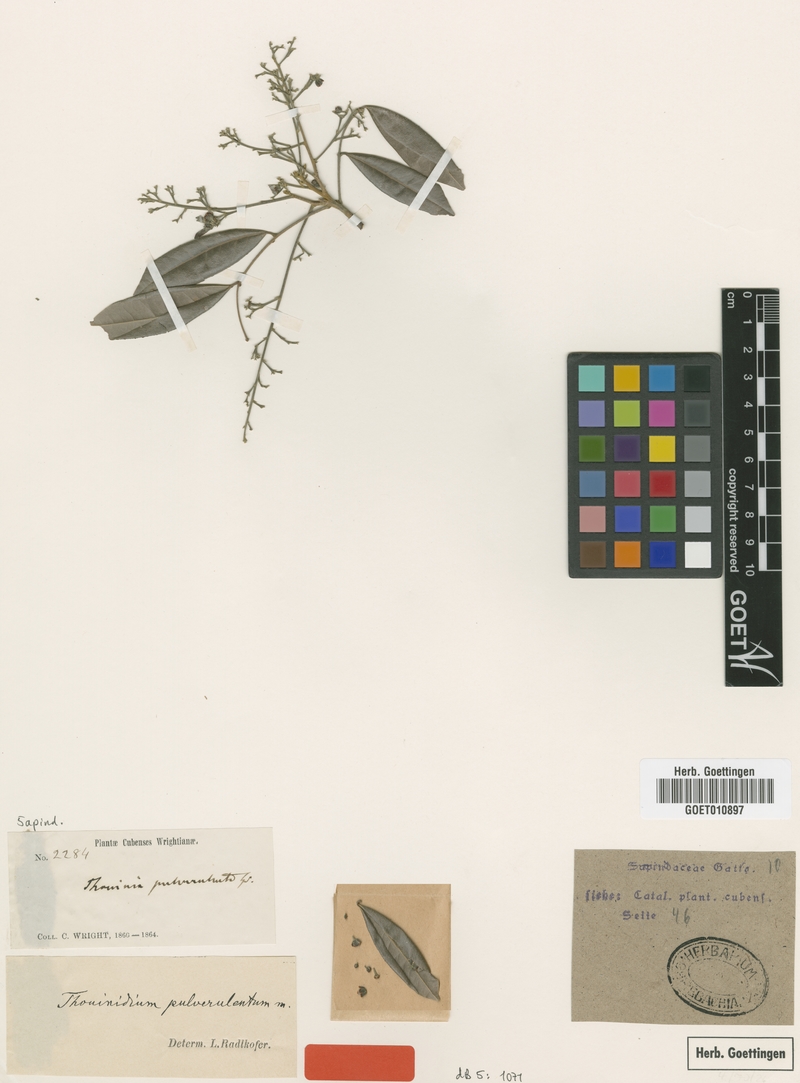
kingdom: Plantae
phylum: Tracheophyta
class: Magnoliopsida
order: Sapindales
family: Sapindaceae
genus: Thouinidium
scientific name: Thouinidium pulverulentum
